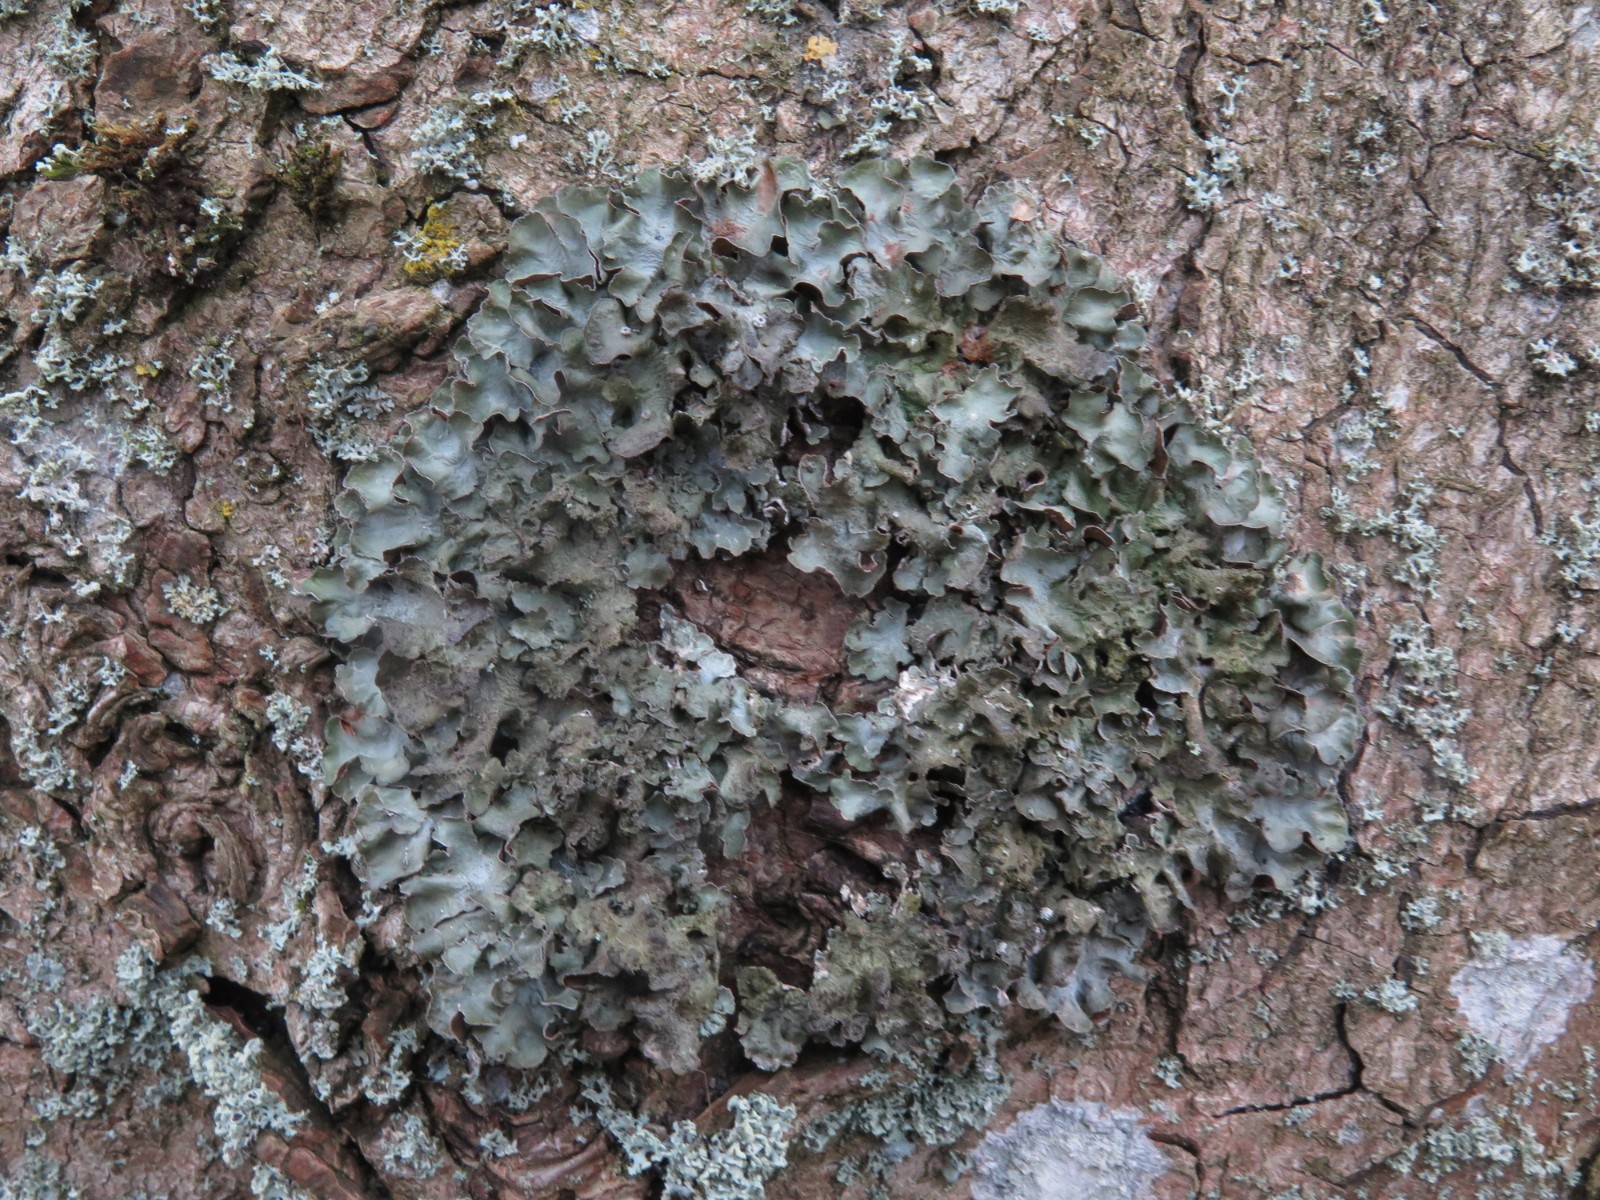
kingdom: Fungi
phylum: Ascomycota
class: Lecanoromycetes
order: Lecanorales
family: Parmeliaceae
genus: Pleurosticta
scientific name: Pleurosticta acetabulum
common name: stor skållav
